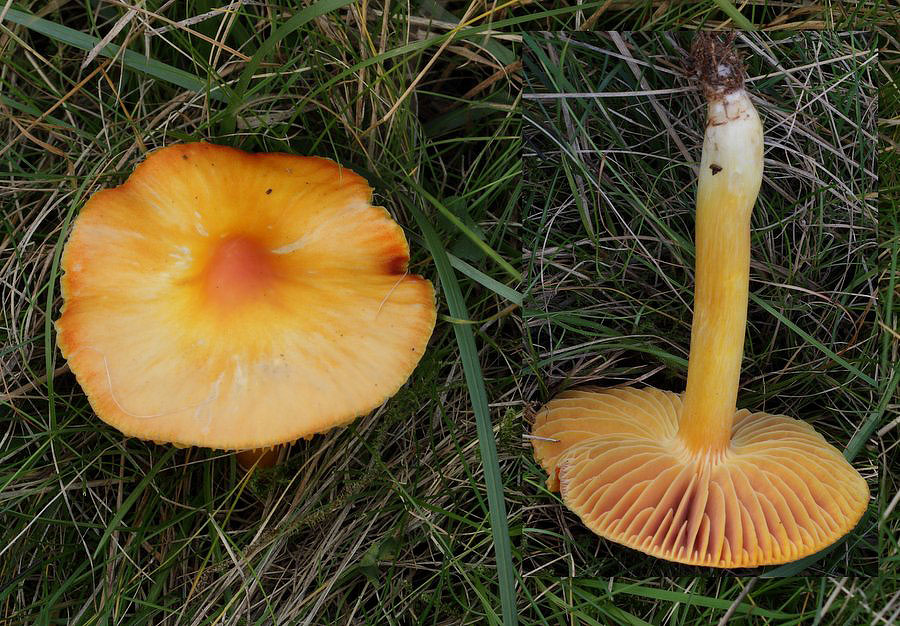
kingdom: Fungi
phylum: Basidiomycota
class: Agaricomycetes
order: Agaricales
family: Hygrophoraceae
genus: Hygrocybe
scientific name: Hygrocybe punicea
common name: skarlagen-vokshat
